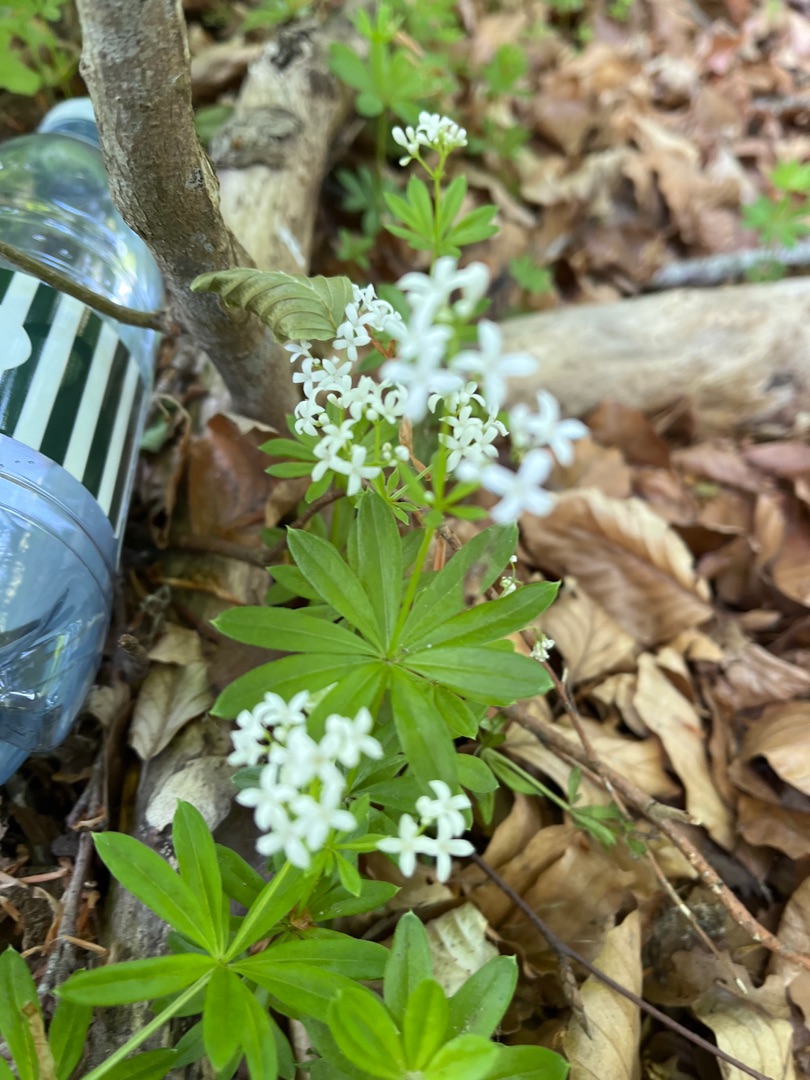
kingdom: Plantae
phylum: Tracheophyta
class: Magnoliopsida
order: Gentianales
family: Rubiaceae
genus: Galium
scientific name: Galium odoratum
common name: Skovmærke
